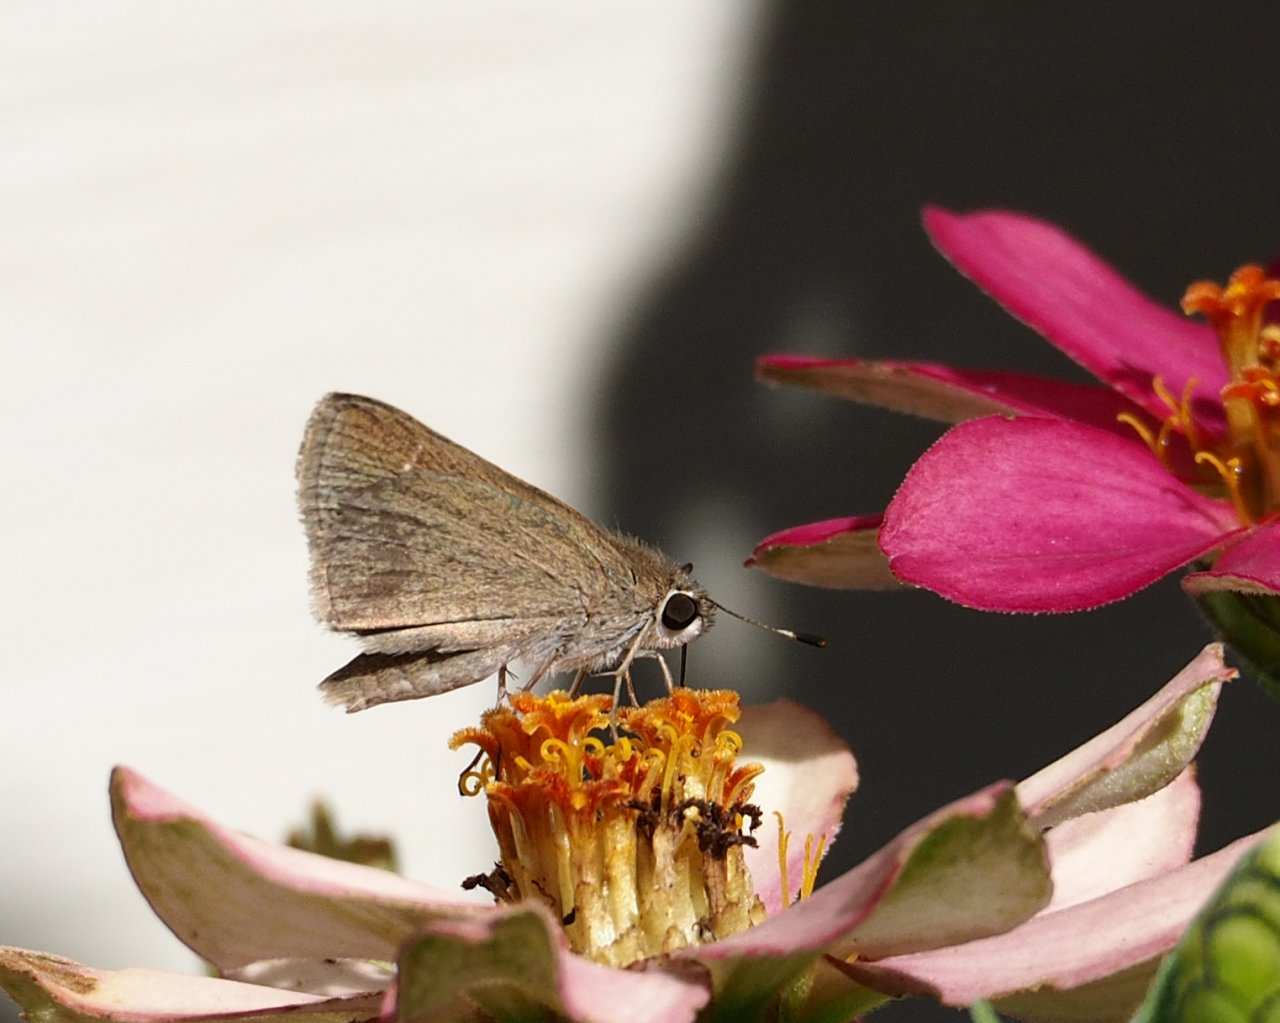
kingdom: Animalia
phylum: Arthropoda
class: Insecta
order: Lepidoptera
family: Hesperiidae
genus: Lerodea
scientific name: Lerodea eufala
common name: Eufala Skipper
